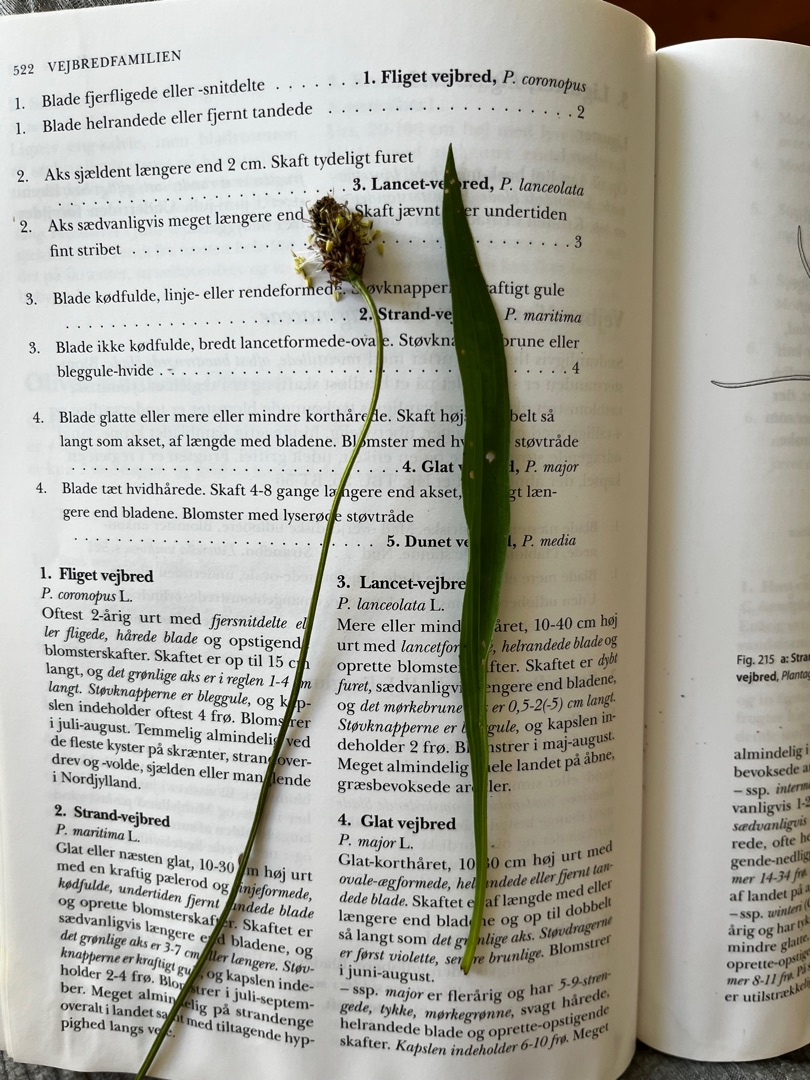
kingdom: Plantae
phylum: Tracheophyta
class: Magnoliopsida
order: Lamiales
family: Plantaginaceae
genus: Plantago
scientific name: Plantago lanceolata
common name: Lancet-vejbred
